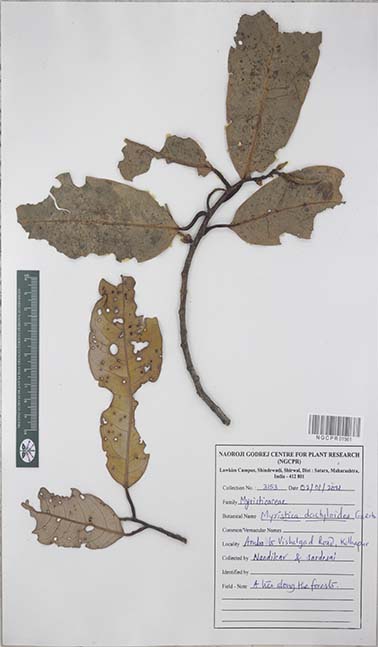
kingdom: Plantae
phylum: Tracheophyta
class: Magnoliopsida
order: Magnoliales
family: Myristicaceae
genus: Myristica
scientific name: Myristica magnifica
